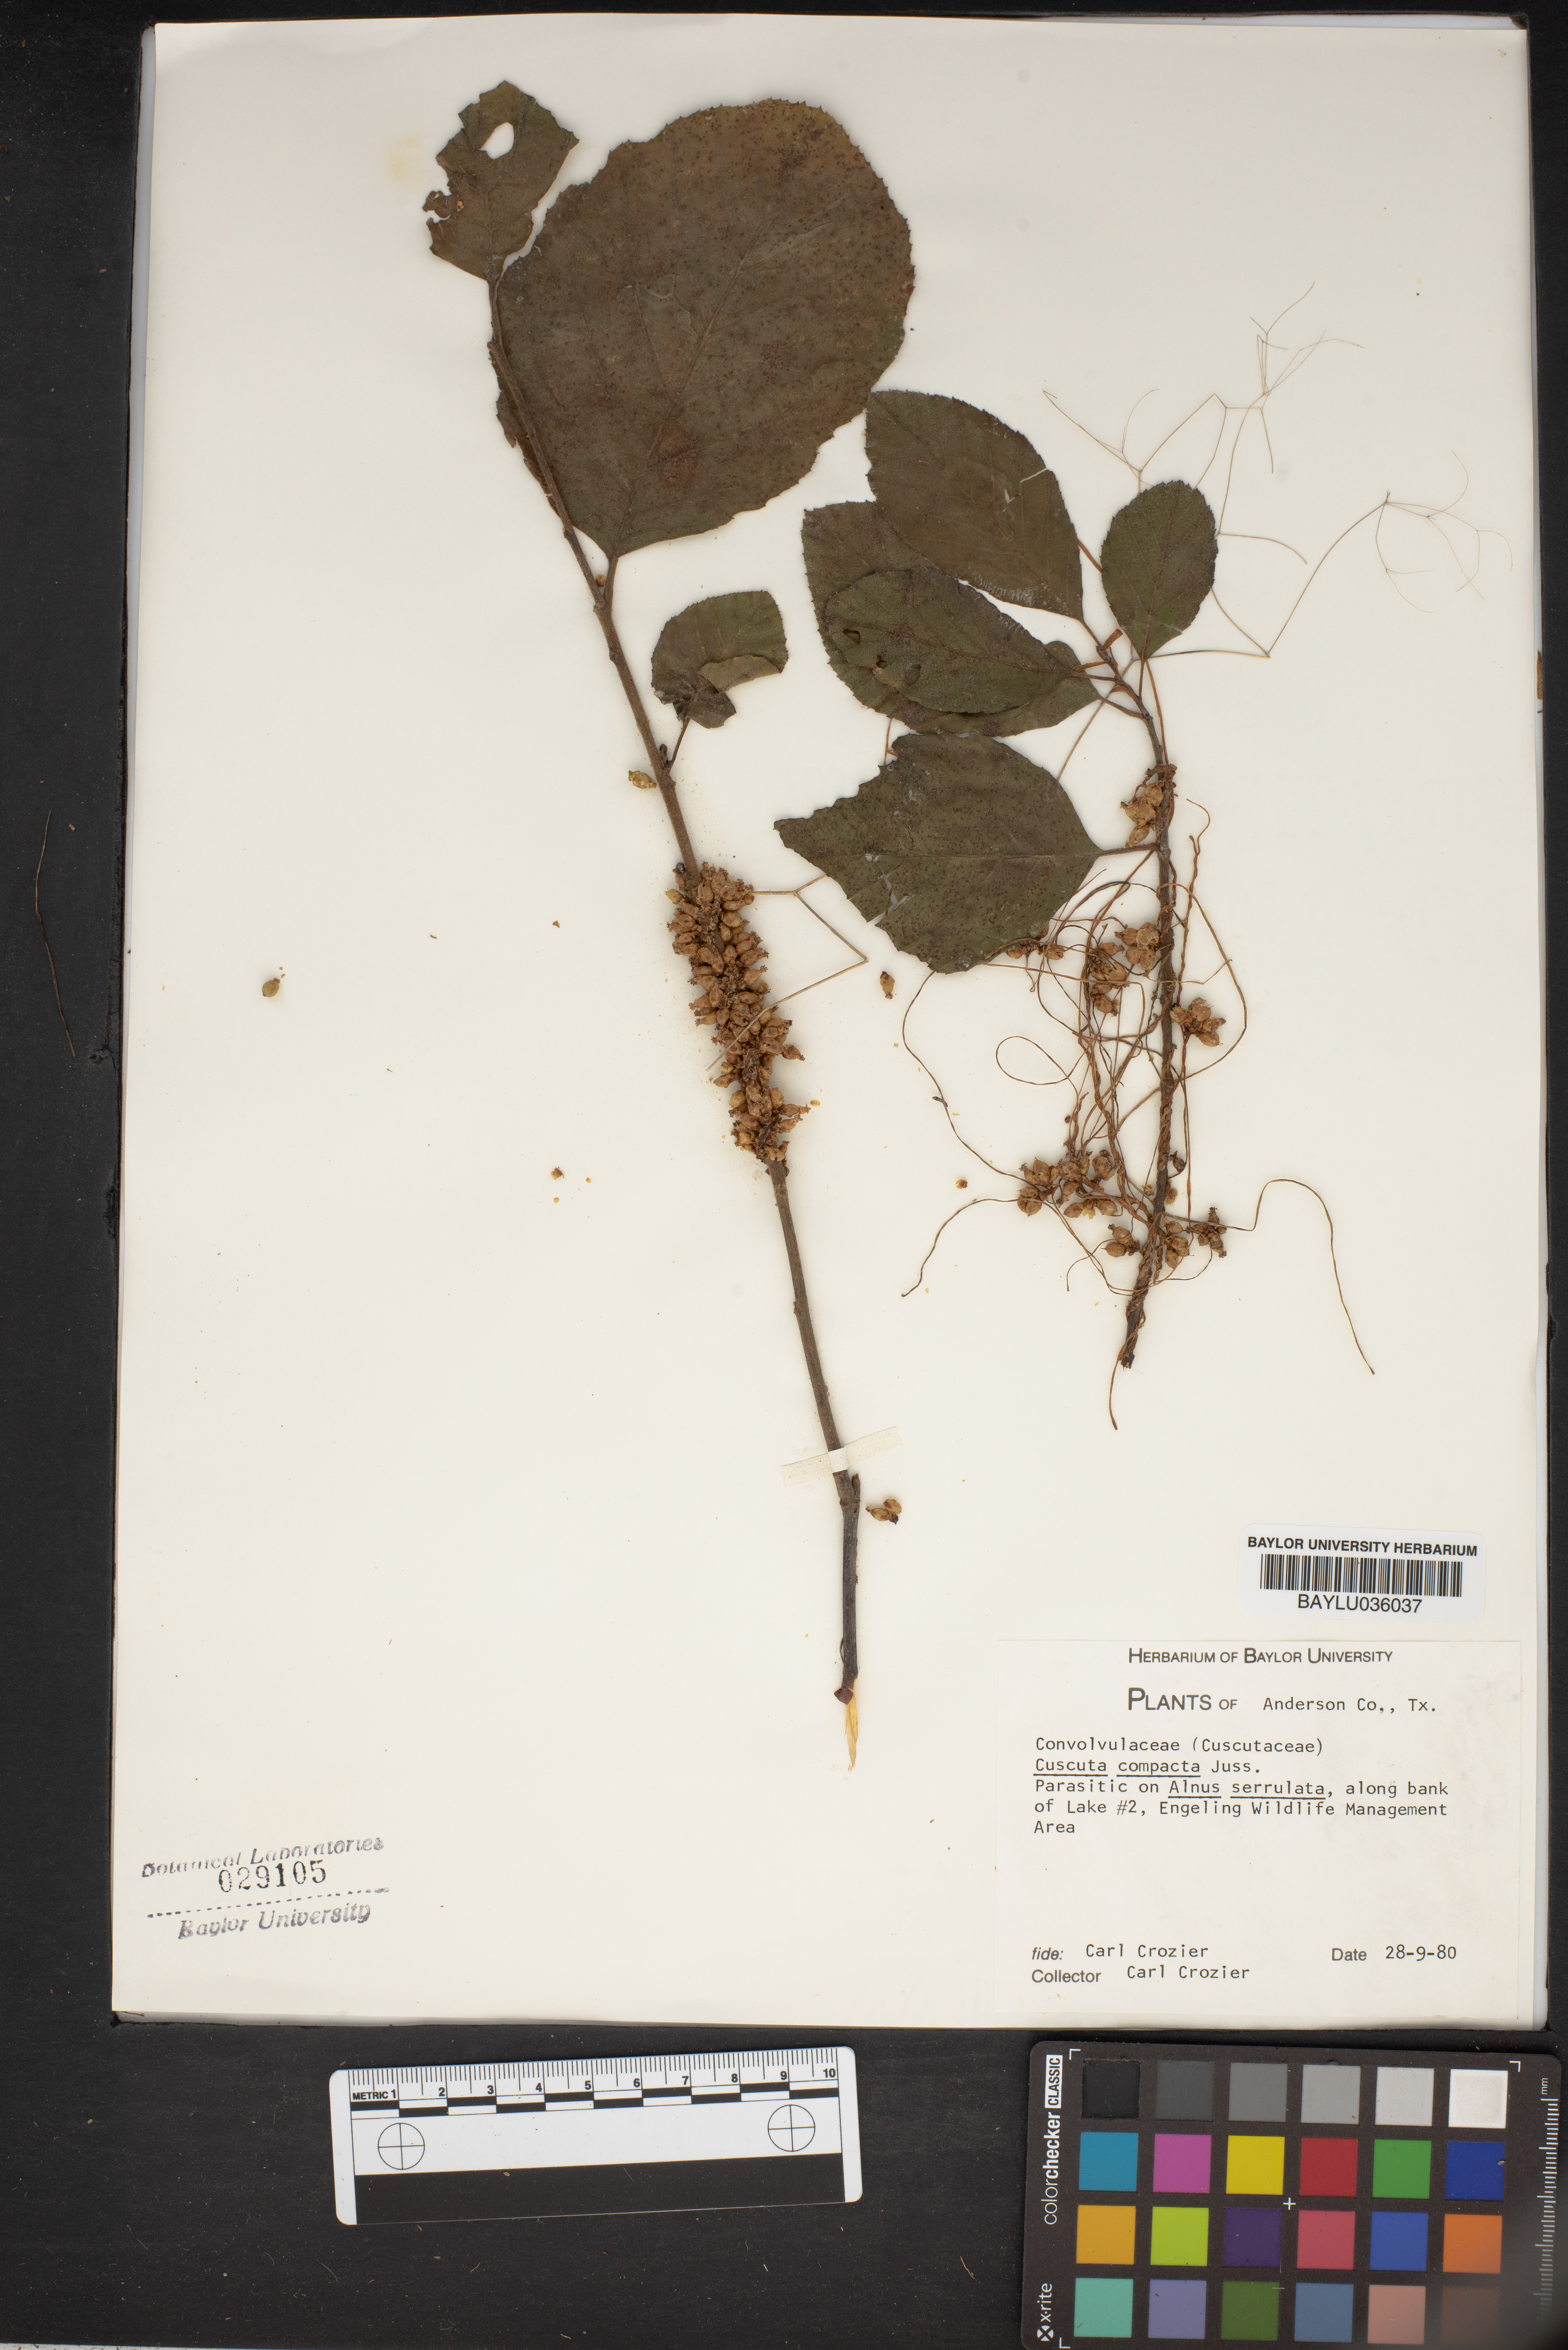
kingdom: Plantae
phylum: Tracheophyta
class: Magnoliopsida
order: Solanales
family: Convolvulaceae
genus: Cuscuta
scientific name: Cuscuta compacta
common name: Compact dodder
